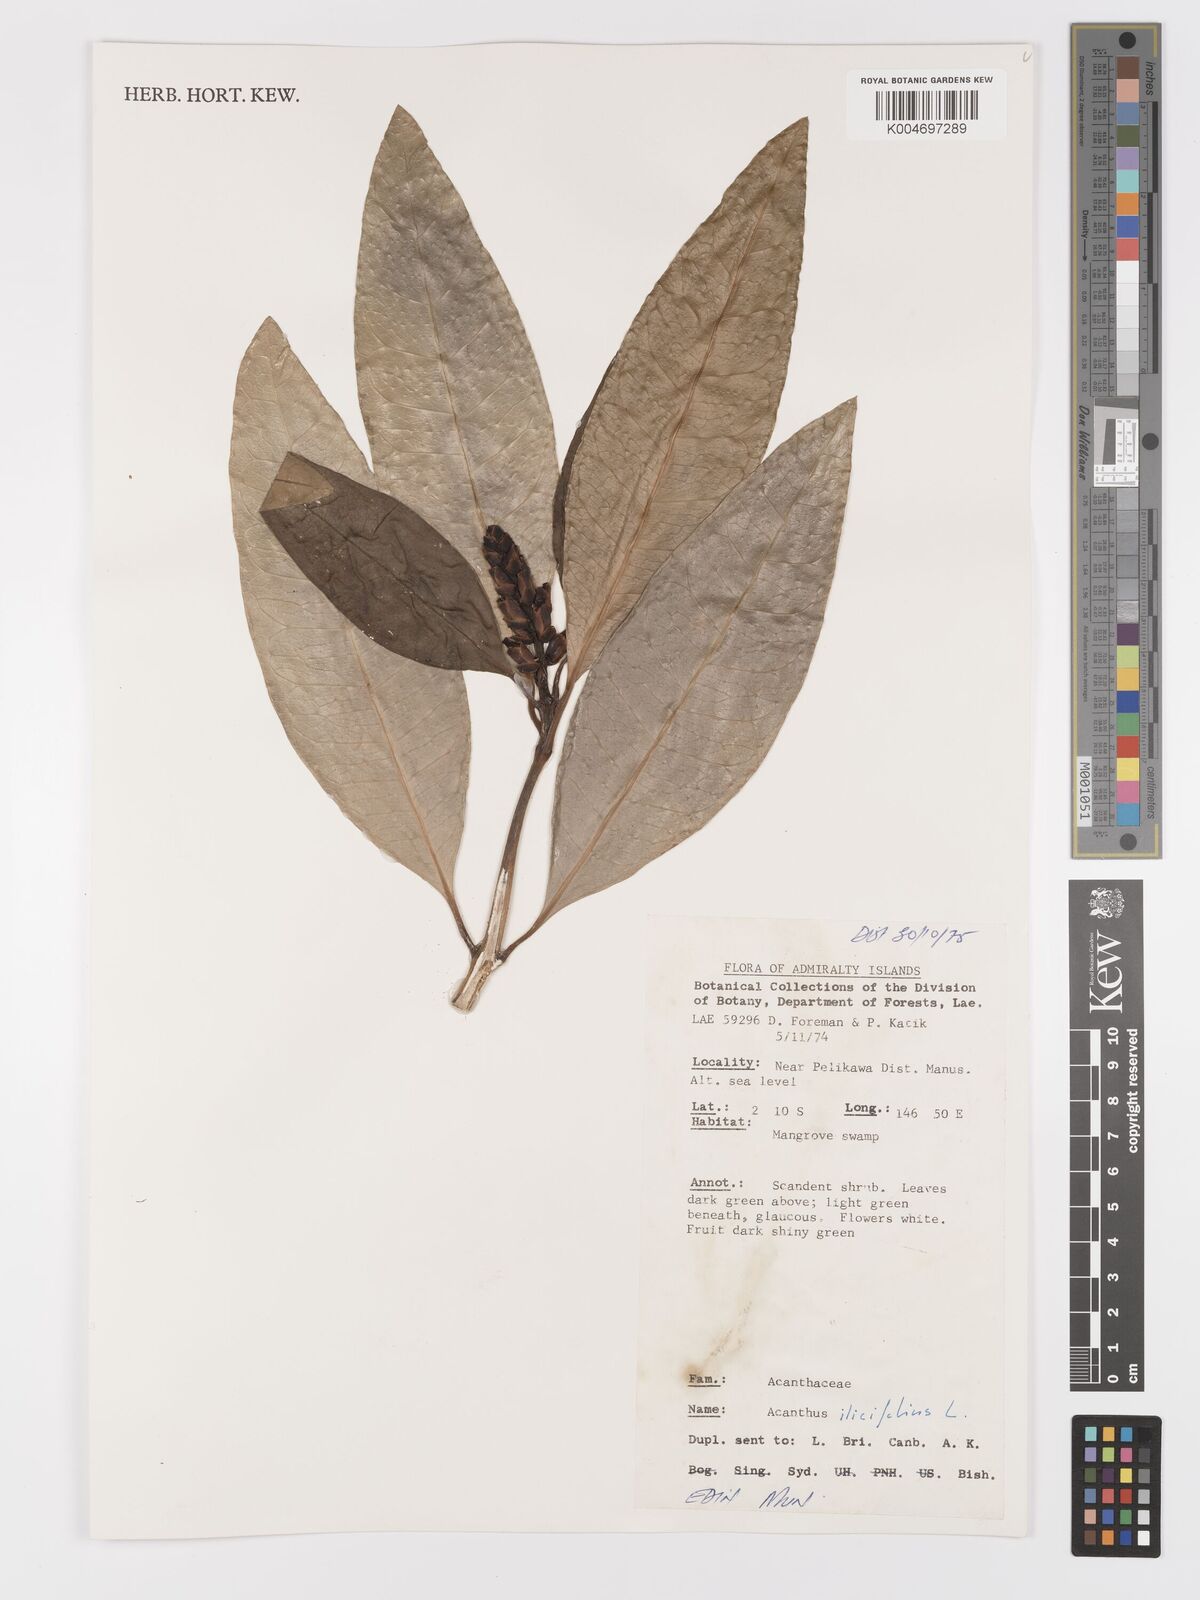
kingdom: Plantae
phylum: Tracheophyta
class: Magnoliopsida
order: Lamiales
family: Acanthaceae
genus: Acanthus
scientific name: Acanthus ilicifolius
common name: Holy mangrove
